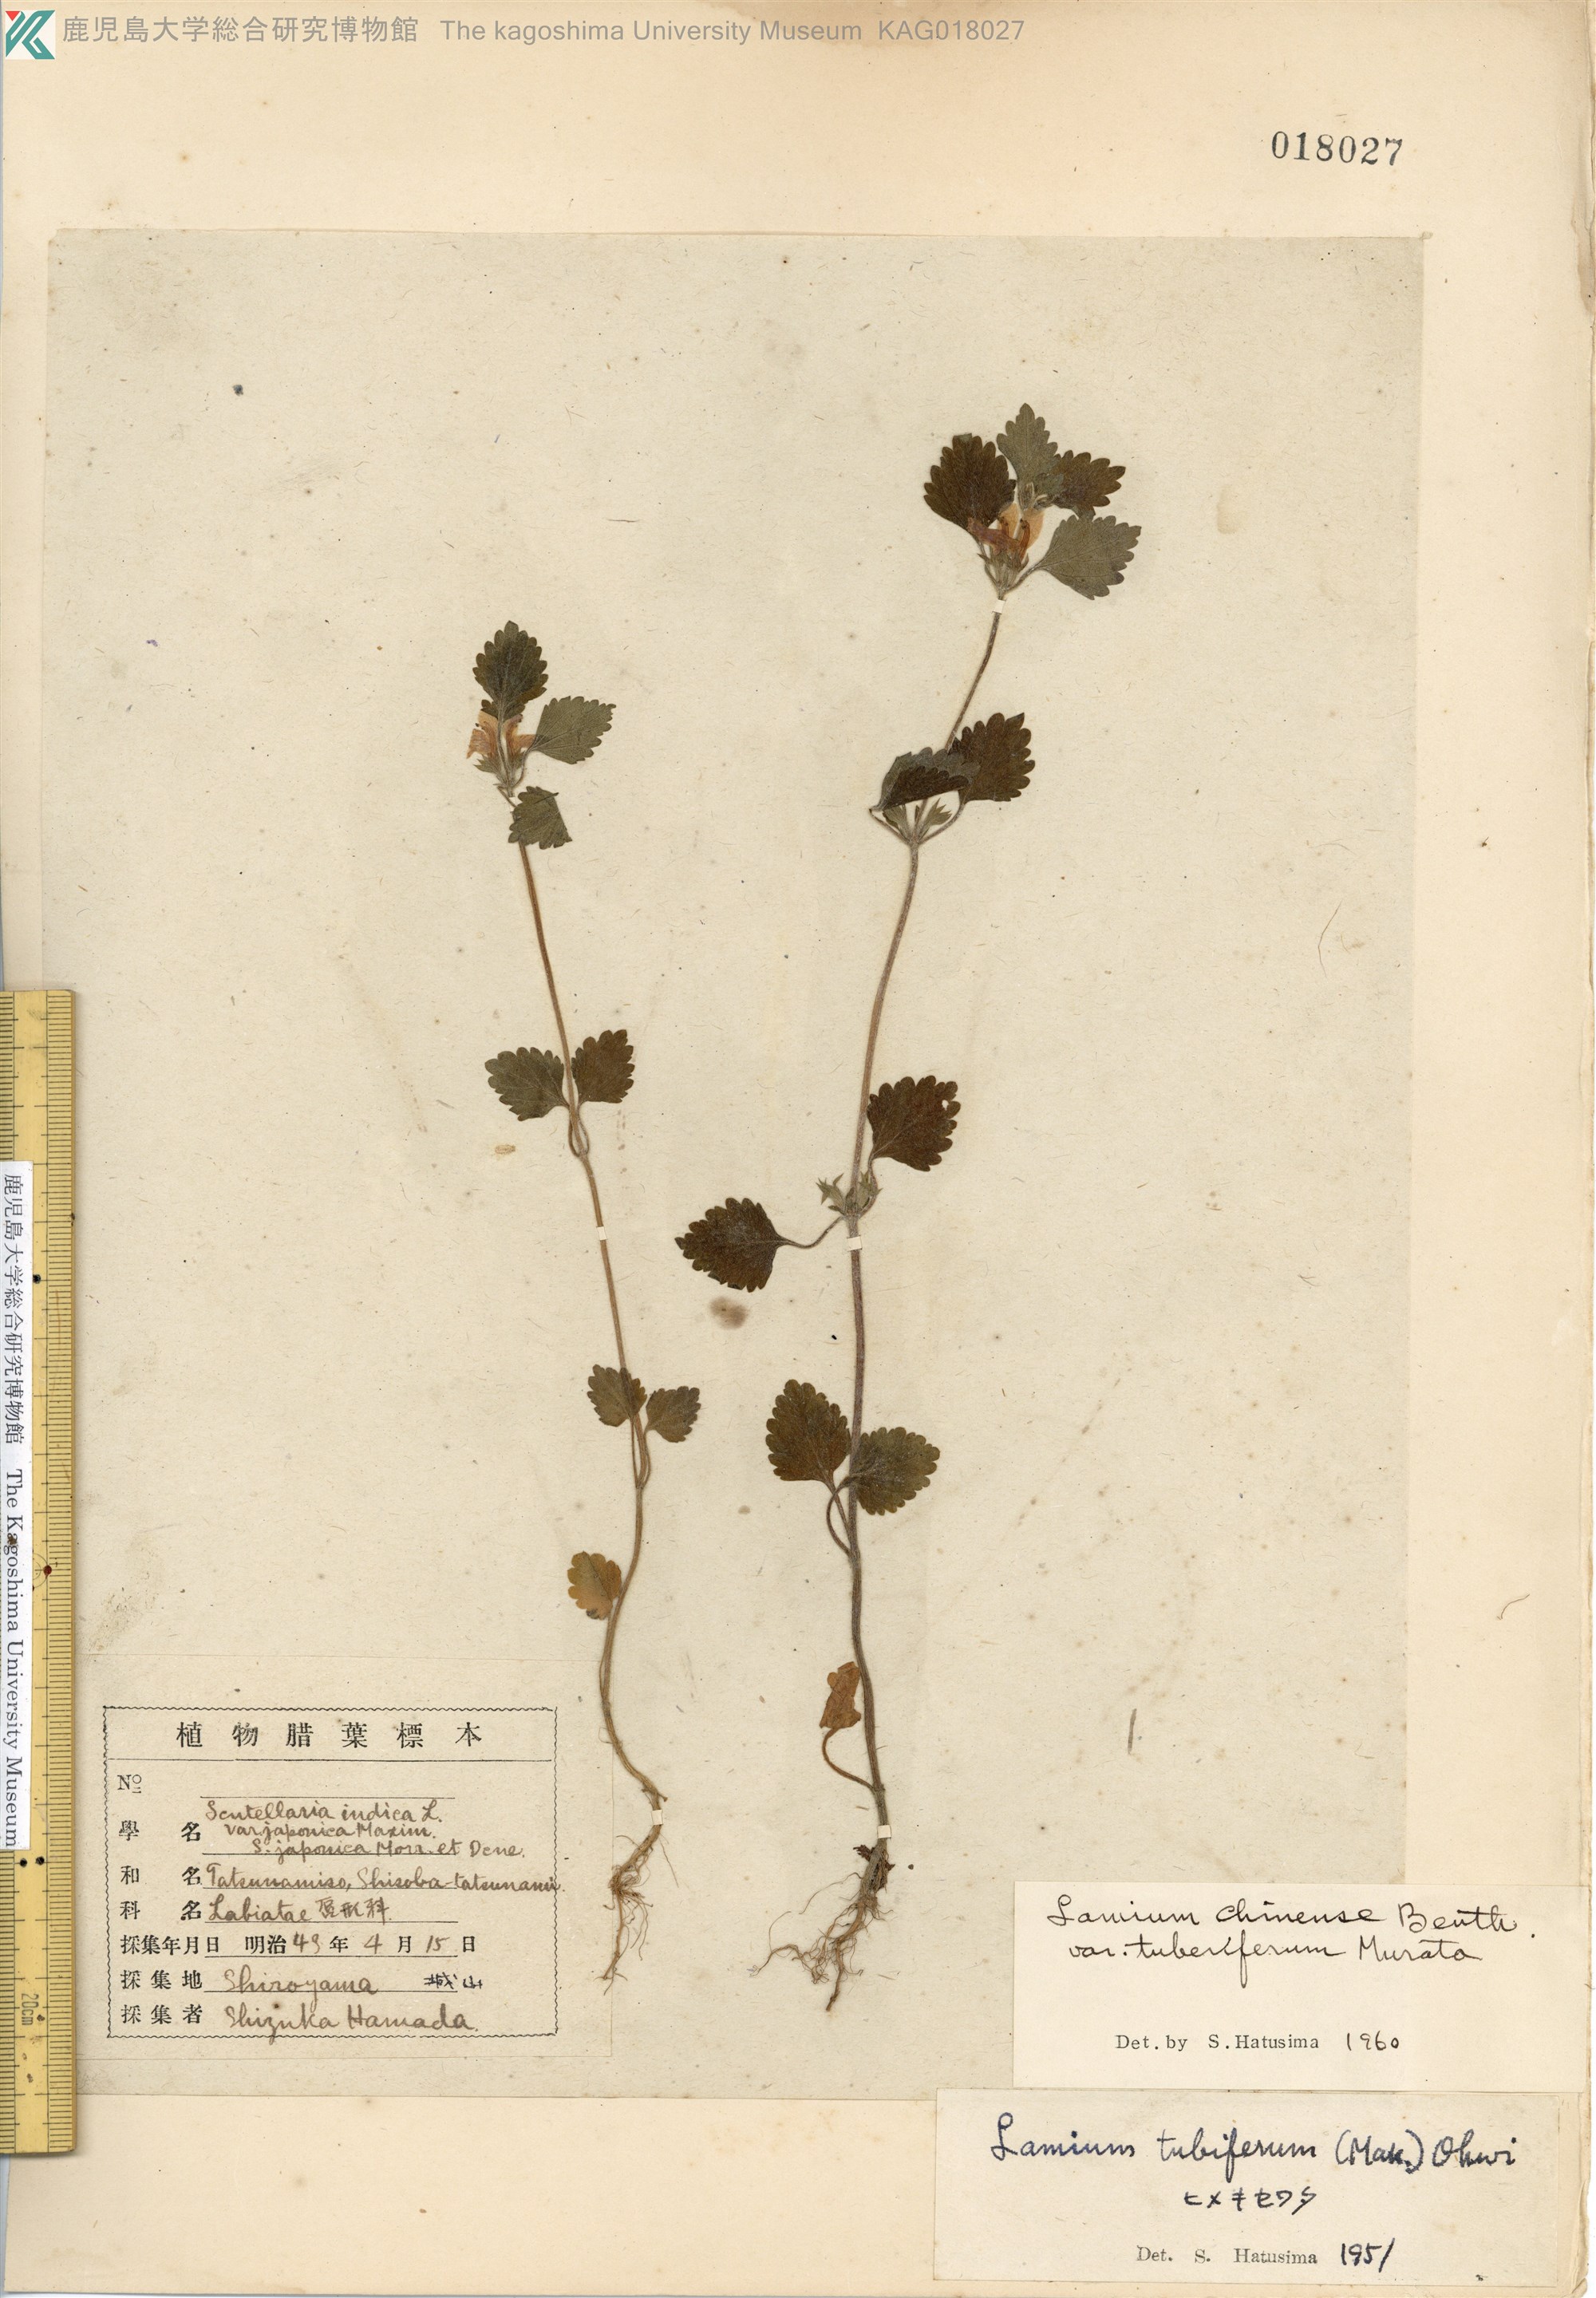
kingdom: Plantae
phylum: Tracheophyta
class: Magnoliopsida
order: Lamiales
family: Lamiaceae
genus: Matsumurella
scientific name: Matsumurella tuberifera
